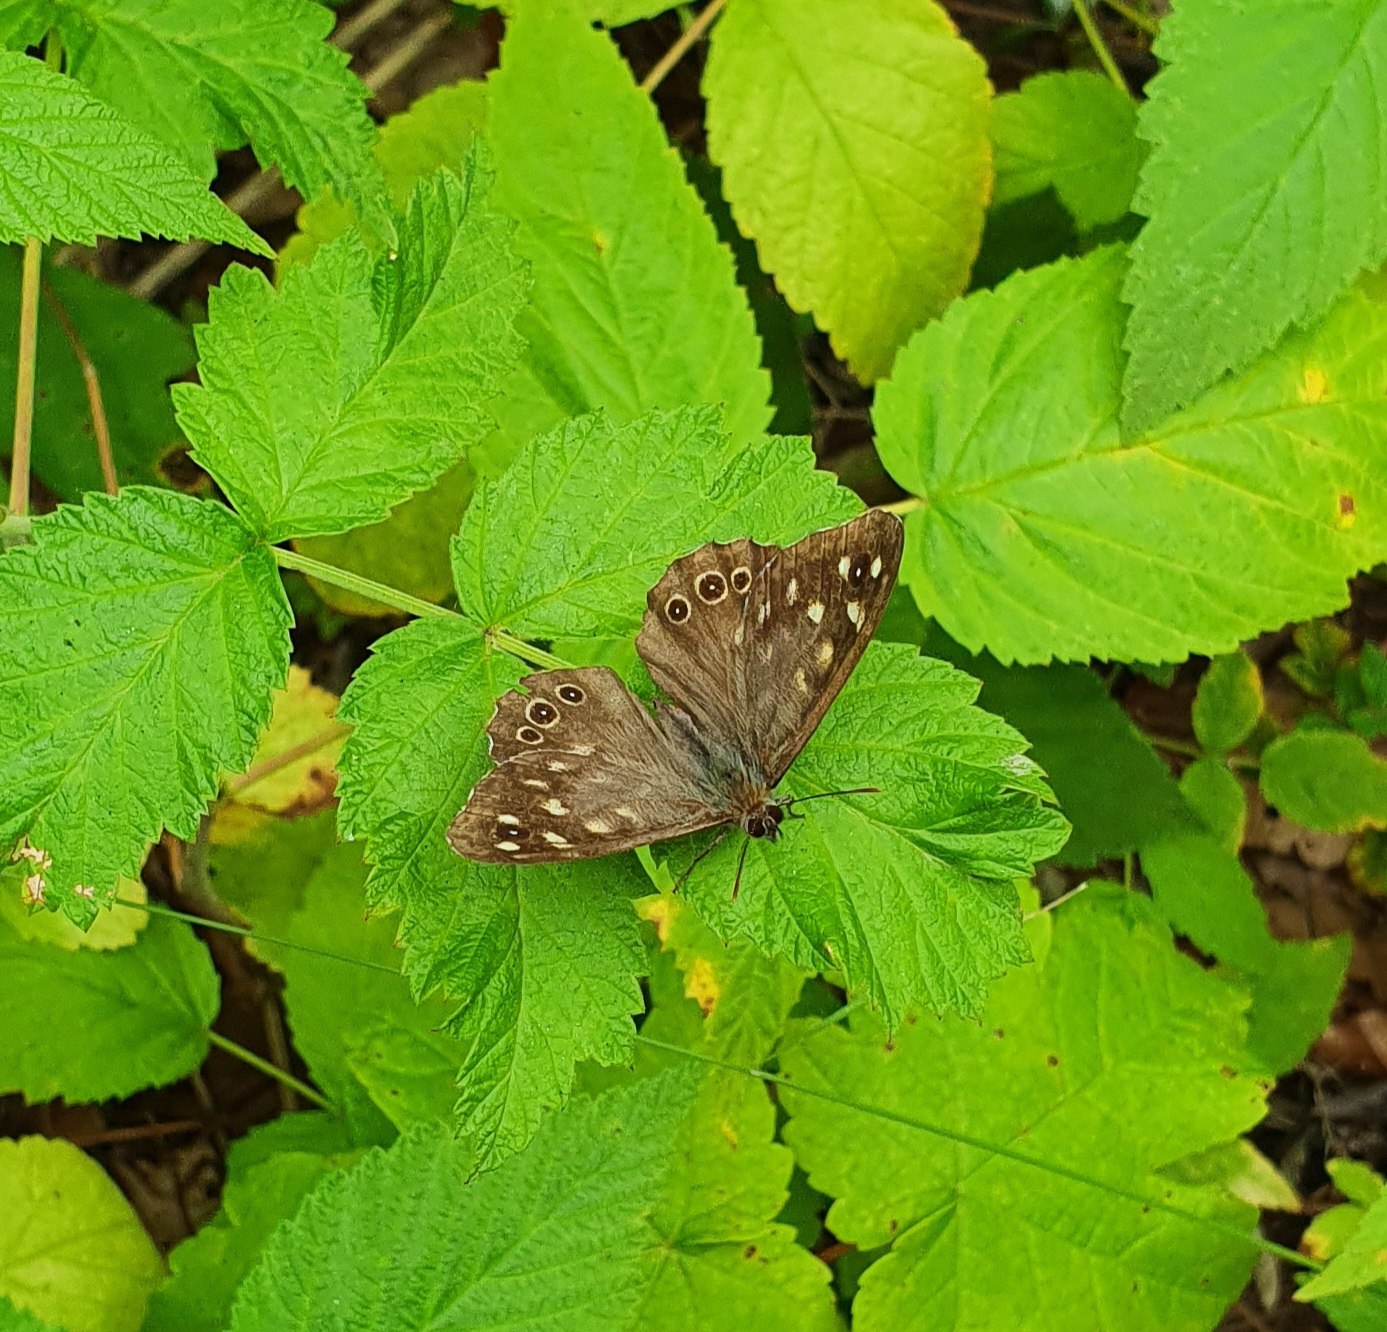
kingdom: Animalia
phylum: Arthropoda
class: Insecta
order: Lepidoptera
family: Nymphalidae
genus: Pararge
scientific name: Pararge aegeria
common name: Skovrandøje
